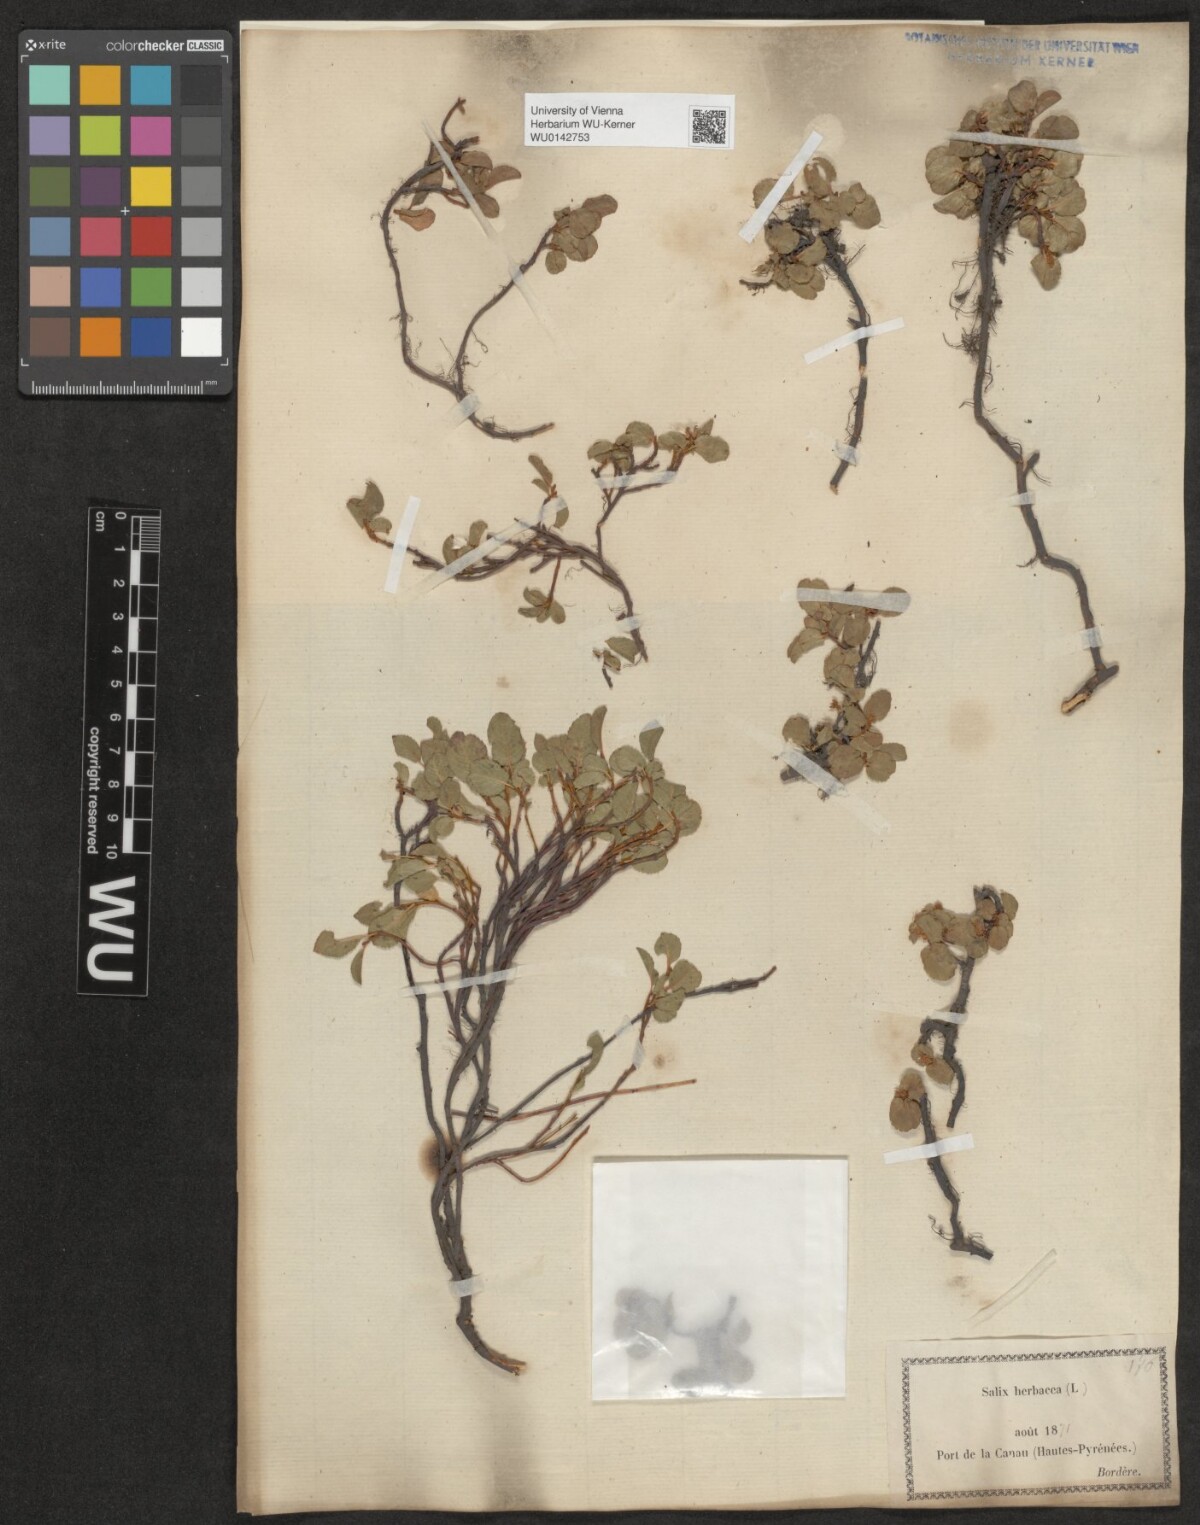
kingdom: Plantae
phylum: Tracheophyta
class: Magnoliopsida
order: Malpighiales
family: Salicaceae
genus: Salix
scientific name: Salix herbacea
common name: Dwarf willow
